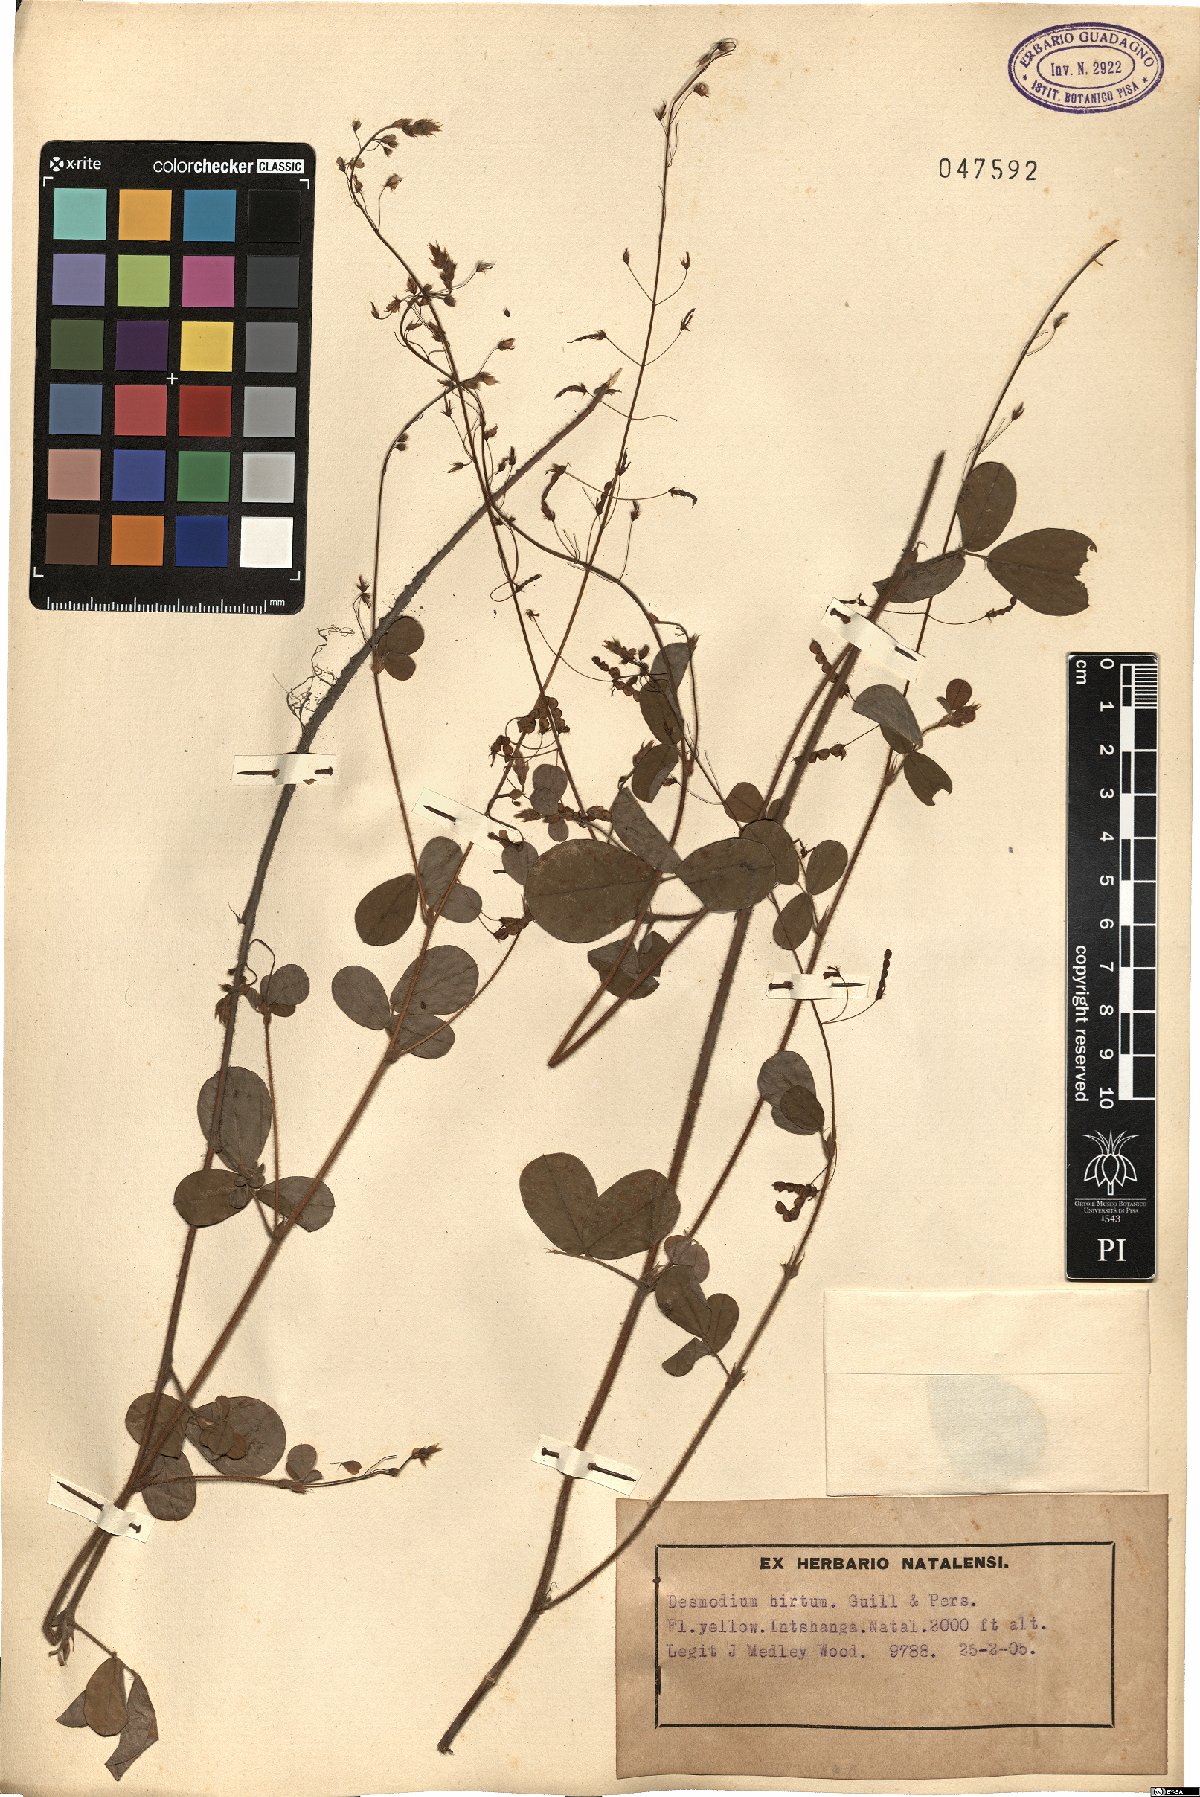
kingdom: Plantae
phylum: Tracheophyta
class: Magnoliopsida
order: Fabales
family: Fabaceae
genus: Grona
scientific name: Grona hirta
